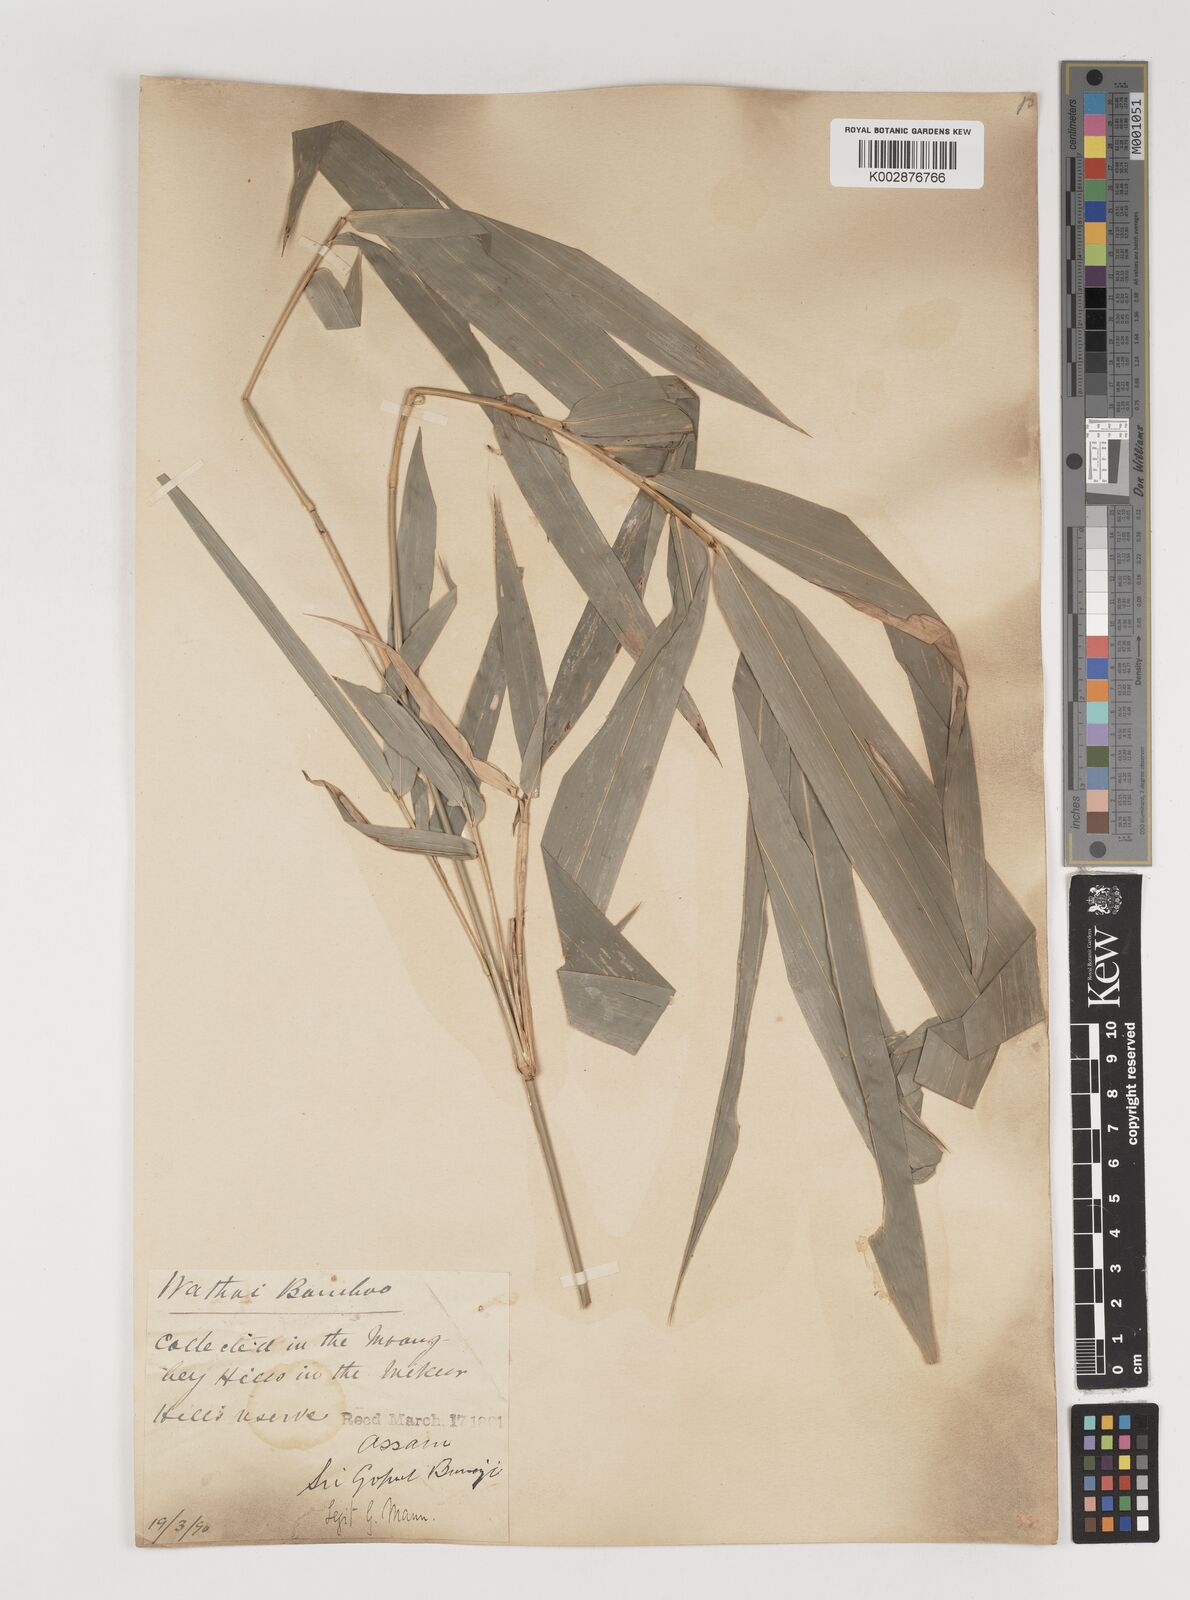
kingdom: Plantae
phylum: Tracheophyta
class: Liliopsida
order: Poales
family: Poaceae
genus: Bambusa
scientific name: Bambusa pallida
